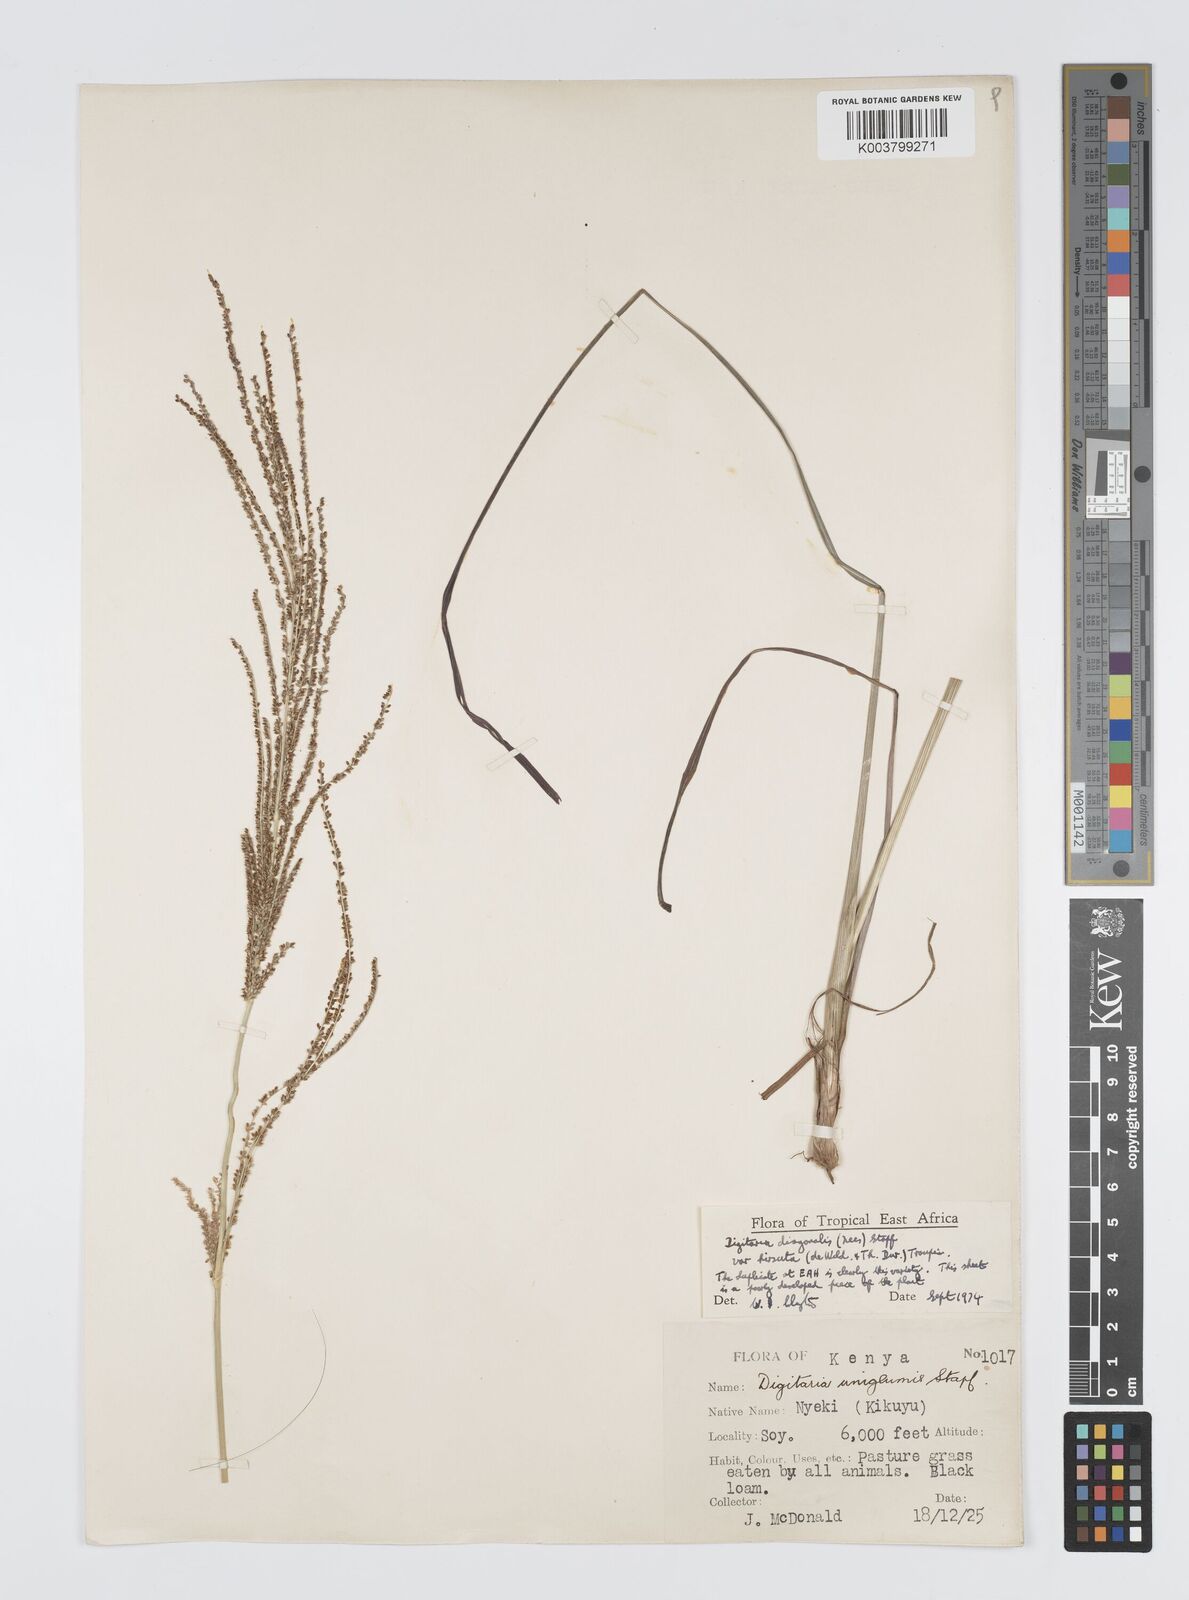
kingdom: Plantae
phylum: Tracheophyta
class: Liliopsida
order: Poales
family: Poaceae
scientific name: Poaceae
